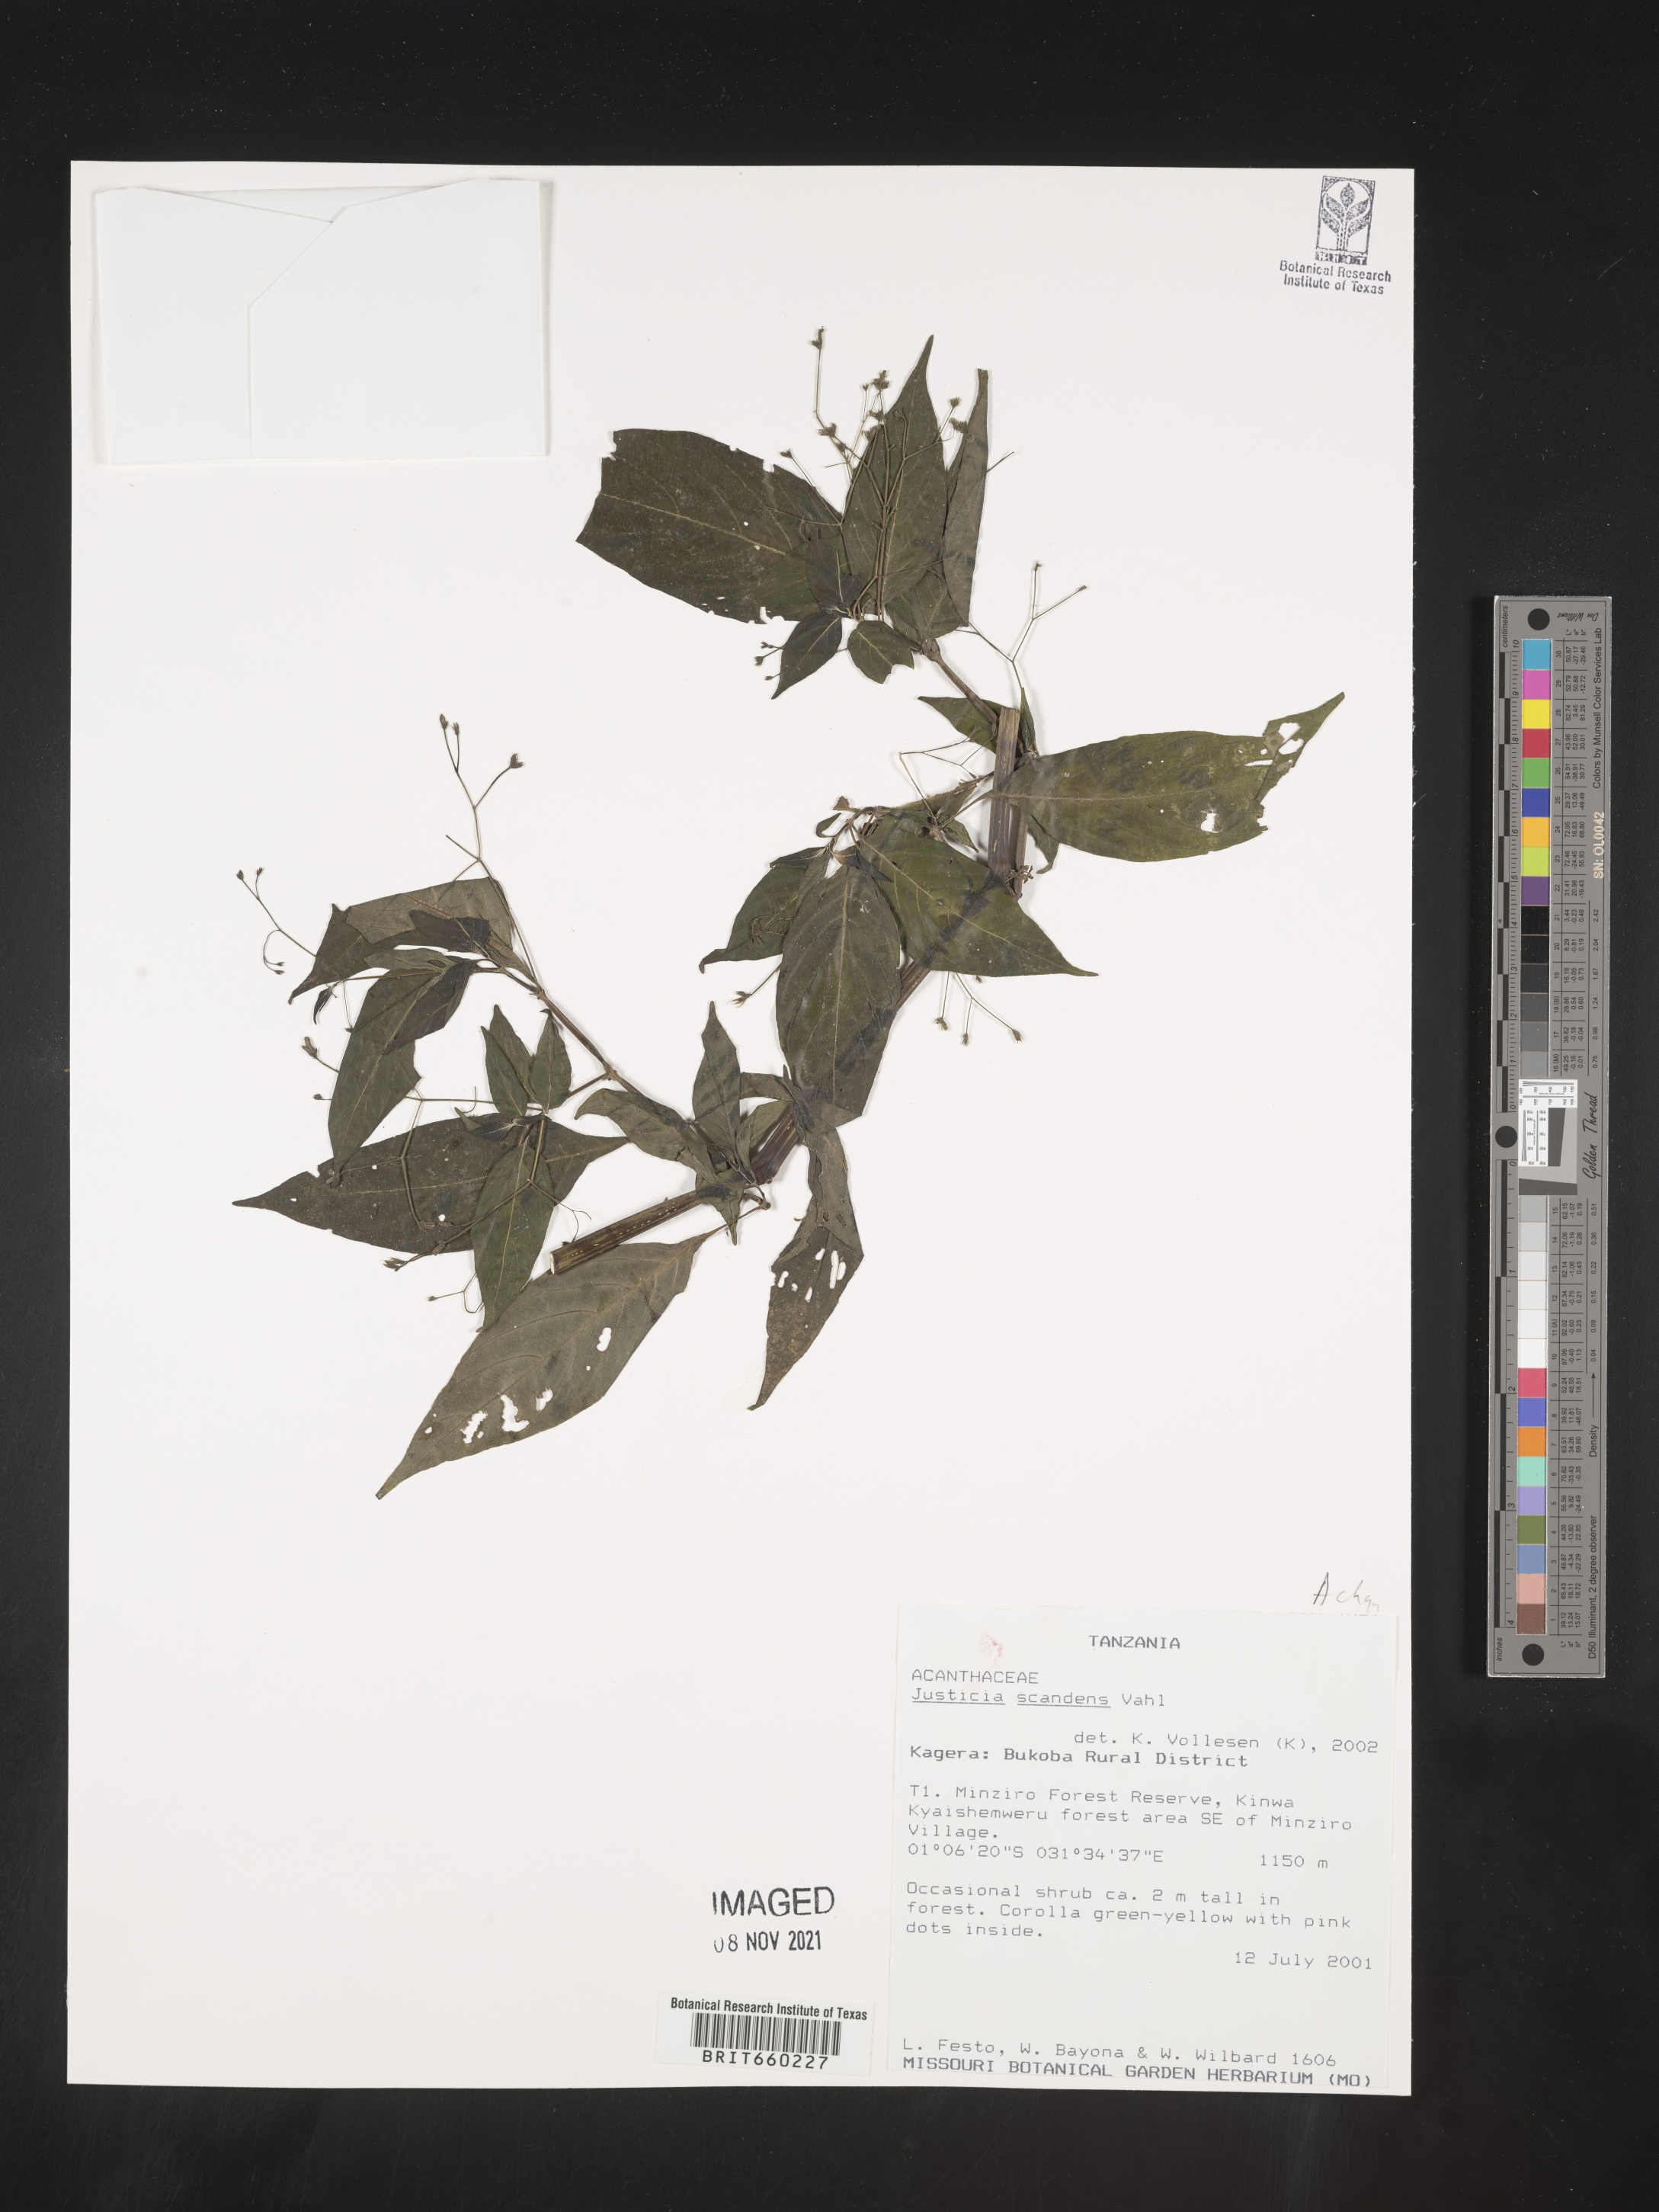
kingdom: Plantae
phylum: Tracheophyta
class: Magnoliopsida
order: Lamiales
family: Acanthaceae
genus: Justicia
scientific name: Justicia
